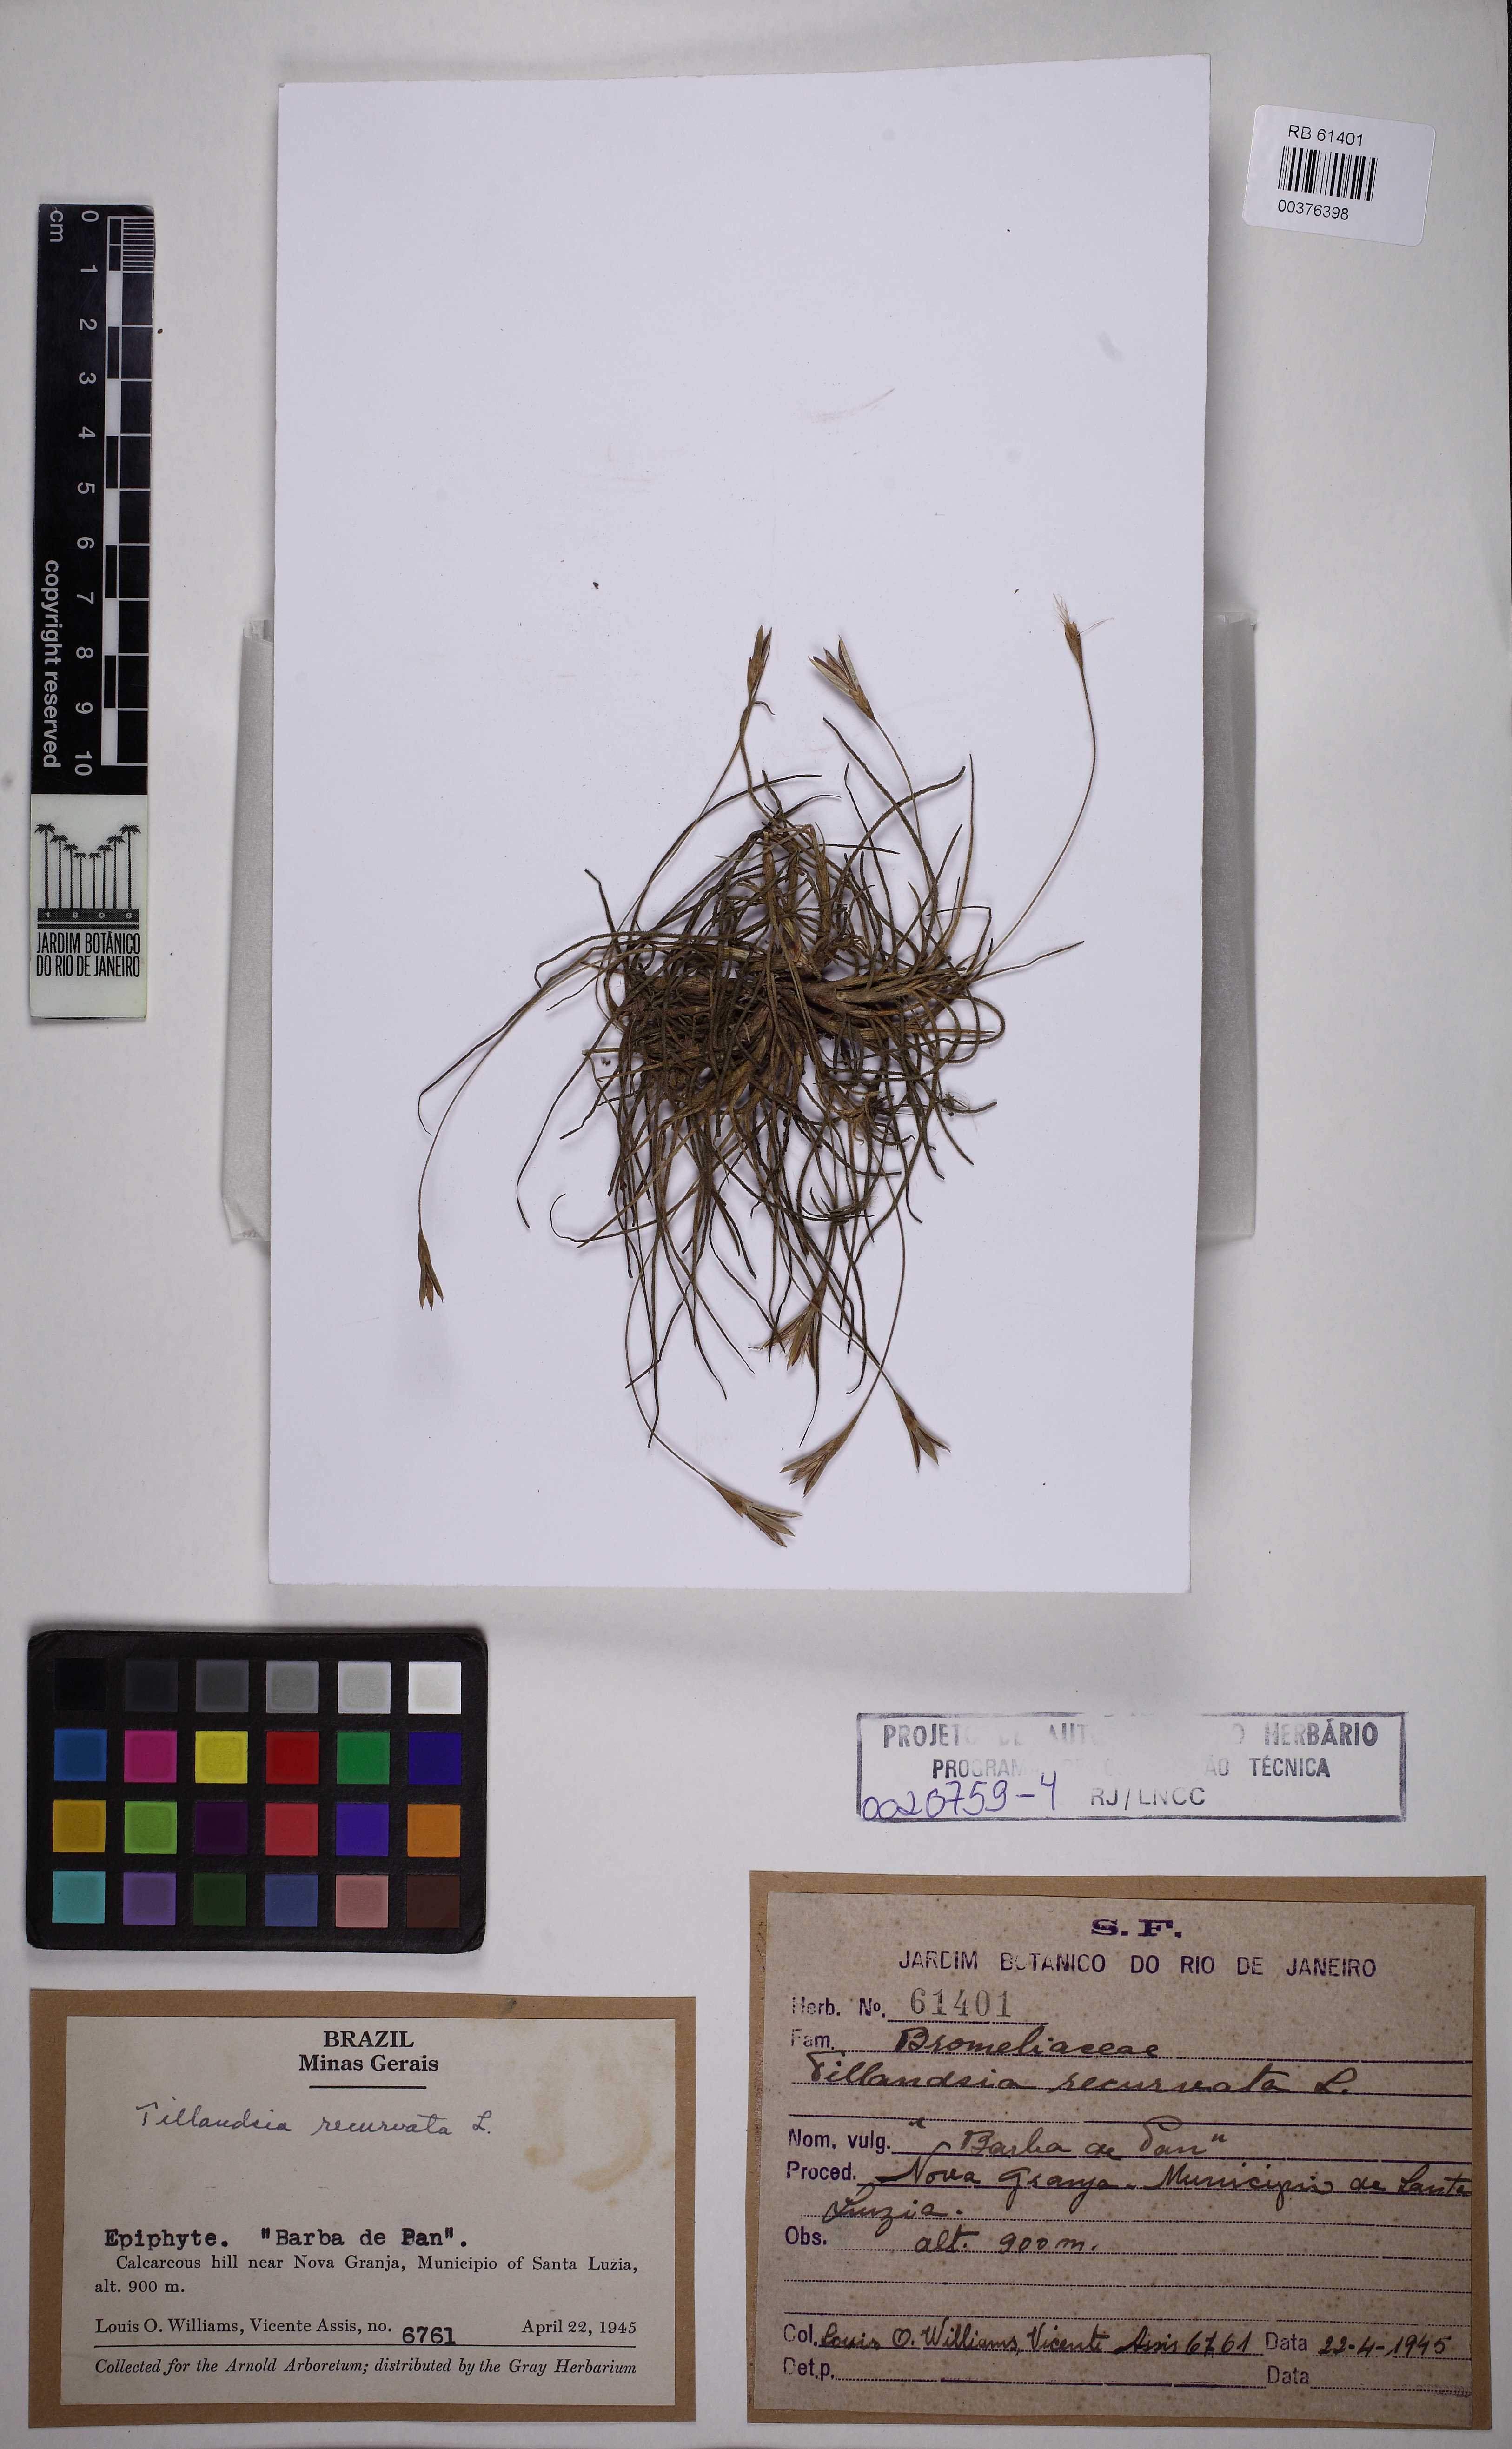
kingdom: Plantae
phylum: Tracheophyta
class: Liliopsida
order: Poales
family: Bromeliaceae
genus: Tillandsia
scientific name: Tillandsia recurvata
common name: Small ballmoss
